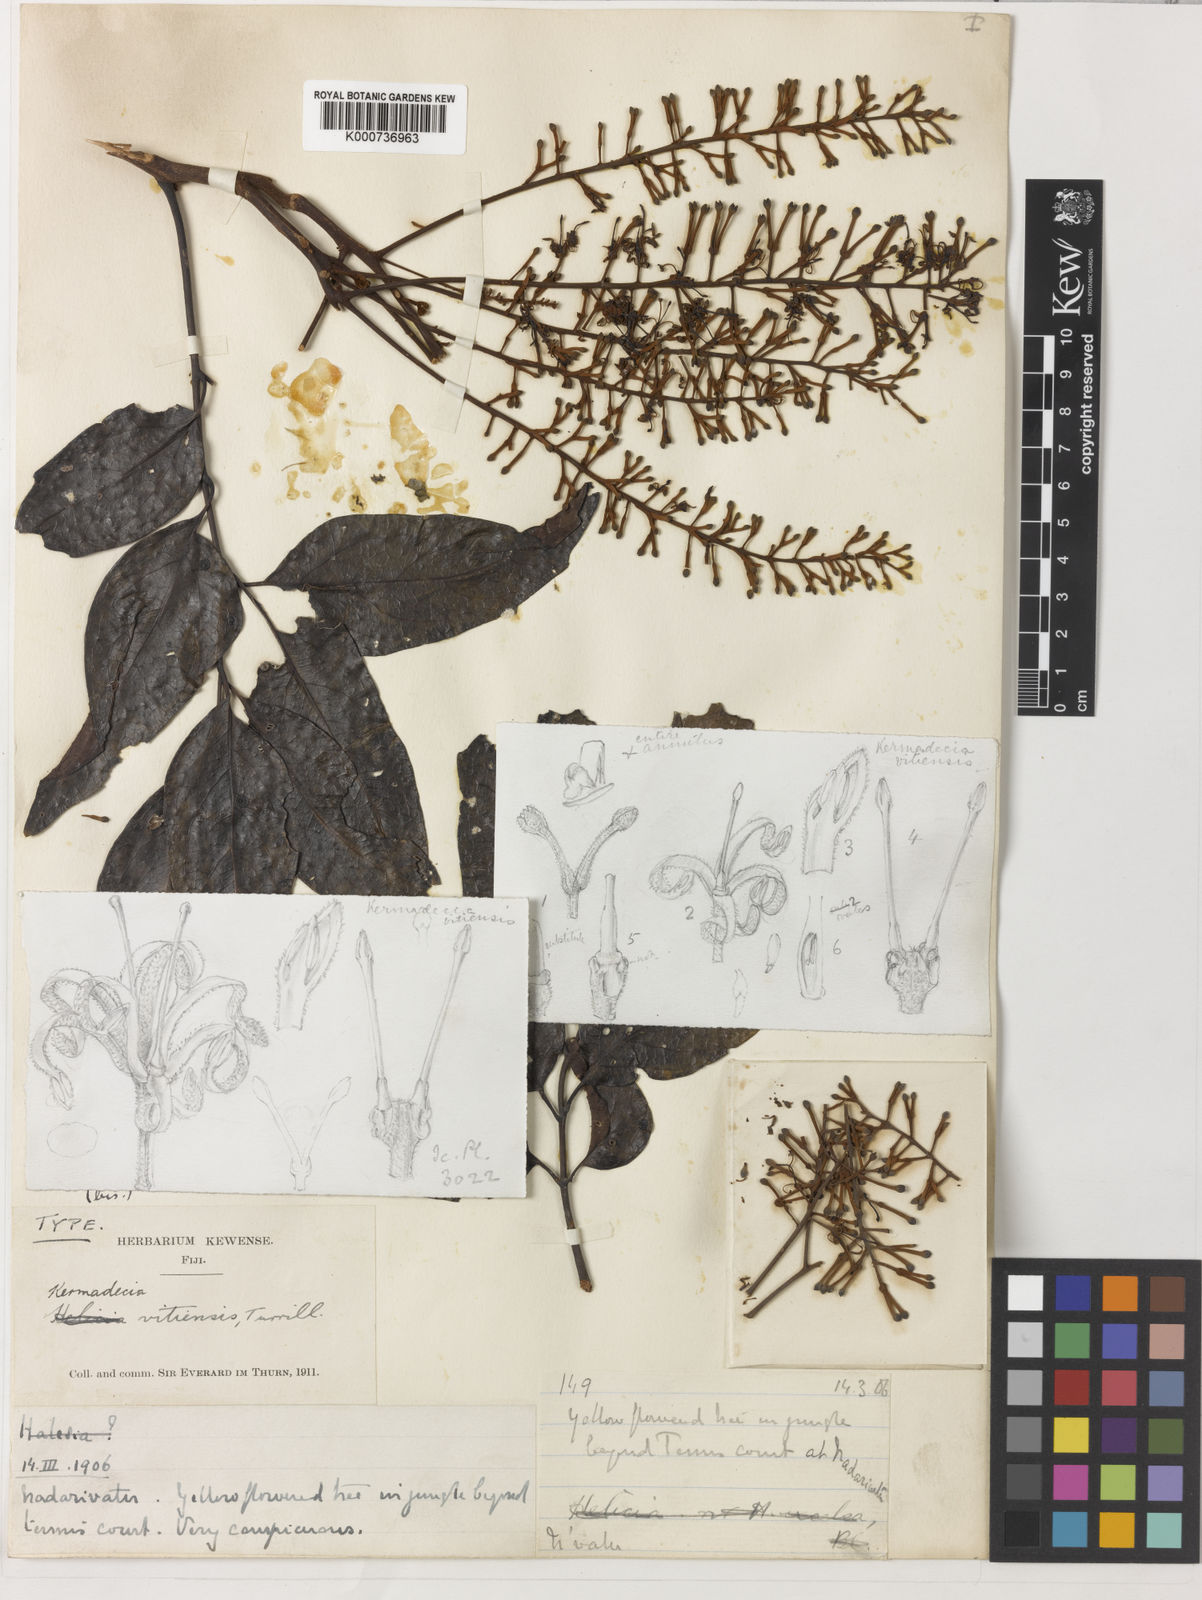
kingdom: Plantae
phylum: Tracheophyta
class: Magnoliopsida
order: Proteales
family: Proteaceae
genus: Turrillia
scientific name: Turrillia vitiensis
